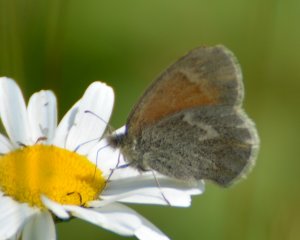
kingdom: Animalia
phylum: Arthropoda
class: Insecta
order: Lepidoptera
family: Nymphalidae
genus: Coenonympha
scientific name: Coenonympha tullia
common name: Large Heath
